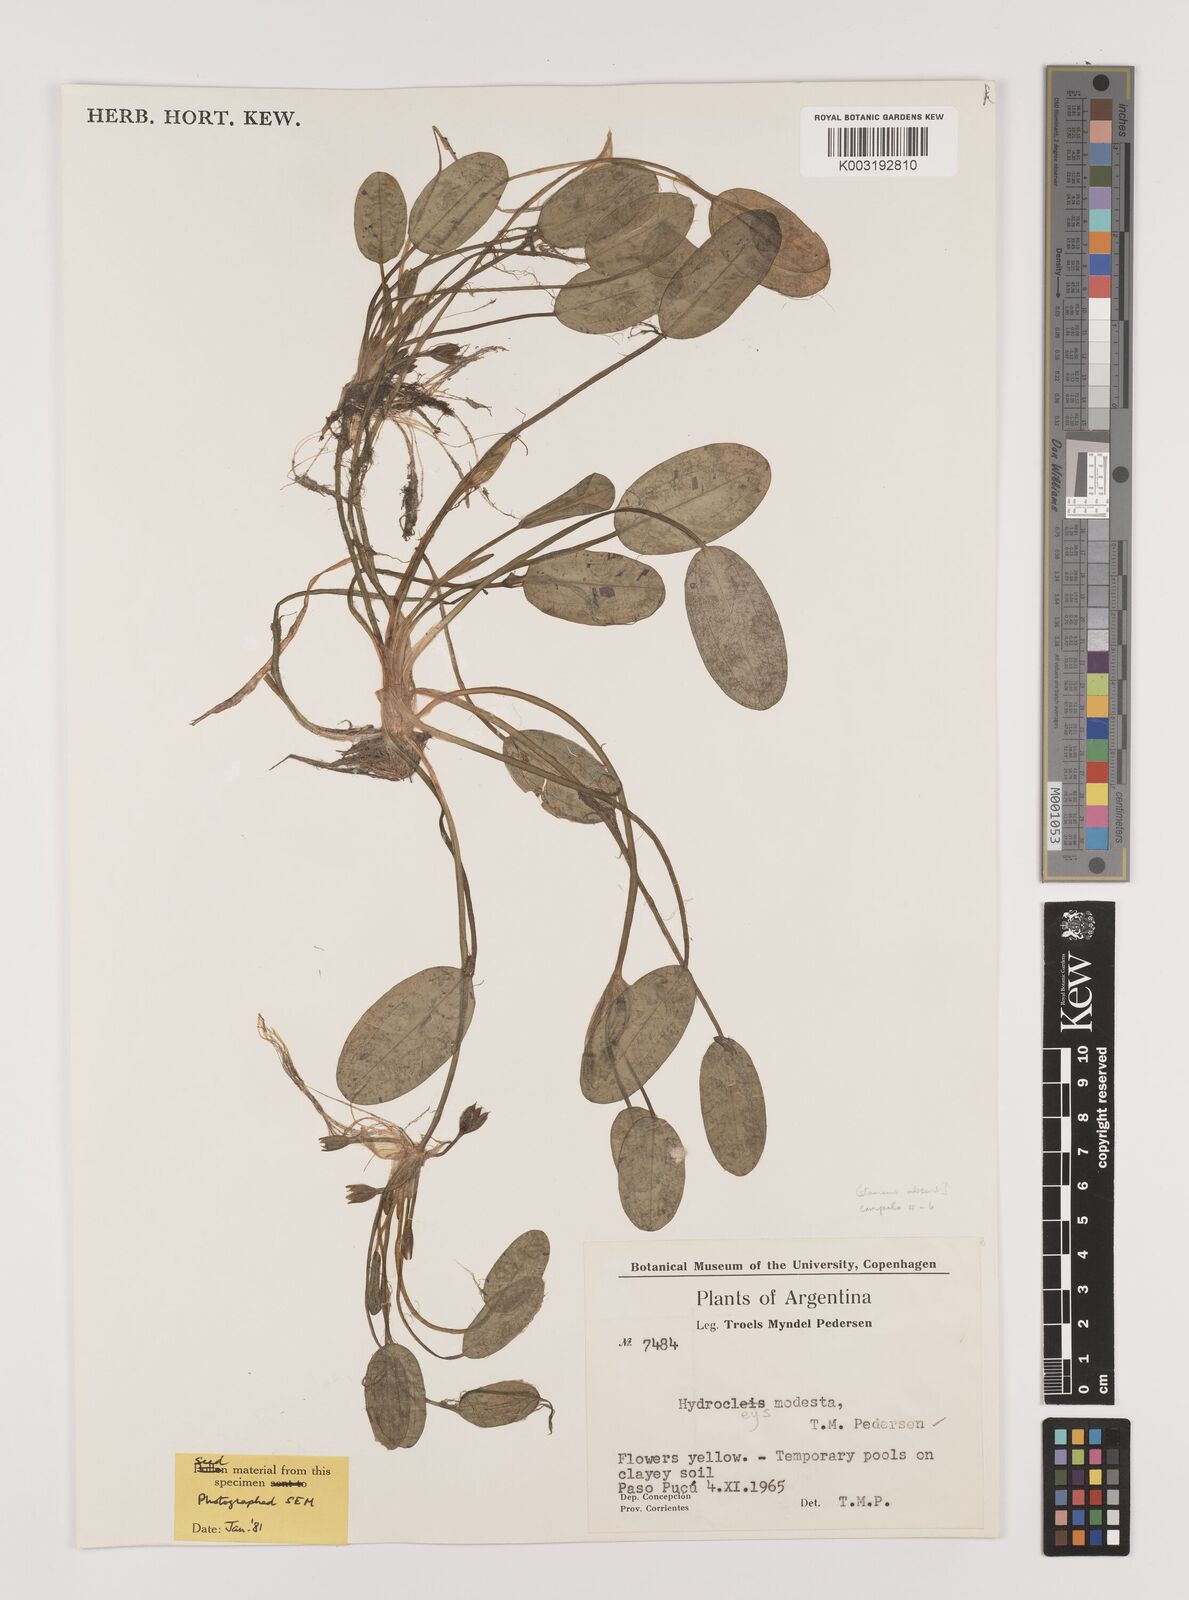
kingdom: Plantae
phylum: Tracheophyta
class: Liliopsida
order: Alismatales
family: Alismataceae
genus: Hydrocleys
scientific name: Hydrocleys modesta
